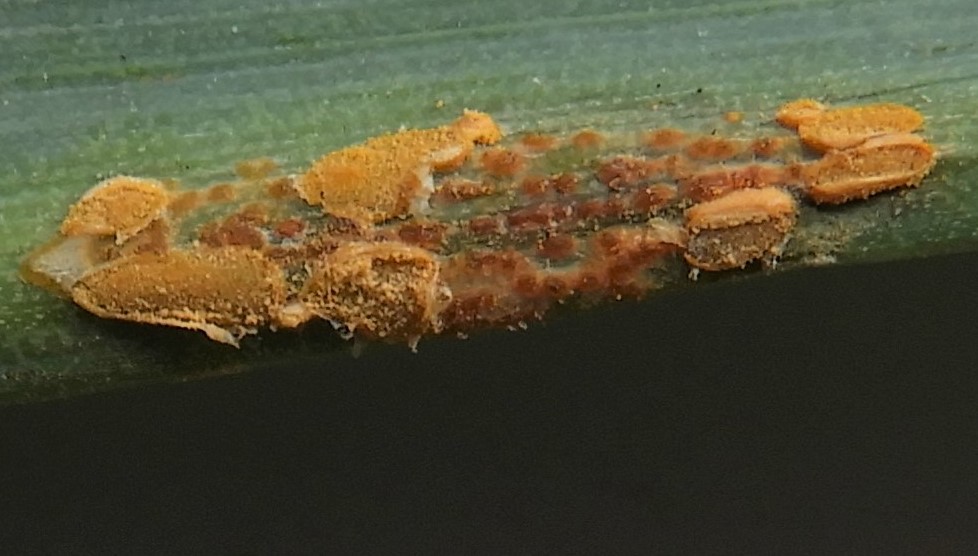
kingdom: Fungi
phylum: Basidiomycota
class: Pucciniomycetes
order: Pucciniales
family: Coleosporiaceae
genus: Coleosporium
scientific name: Coleosporium tussilaginis
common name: almindelig fyrrenålerust
